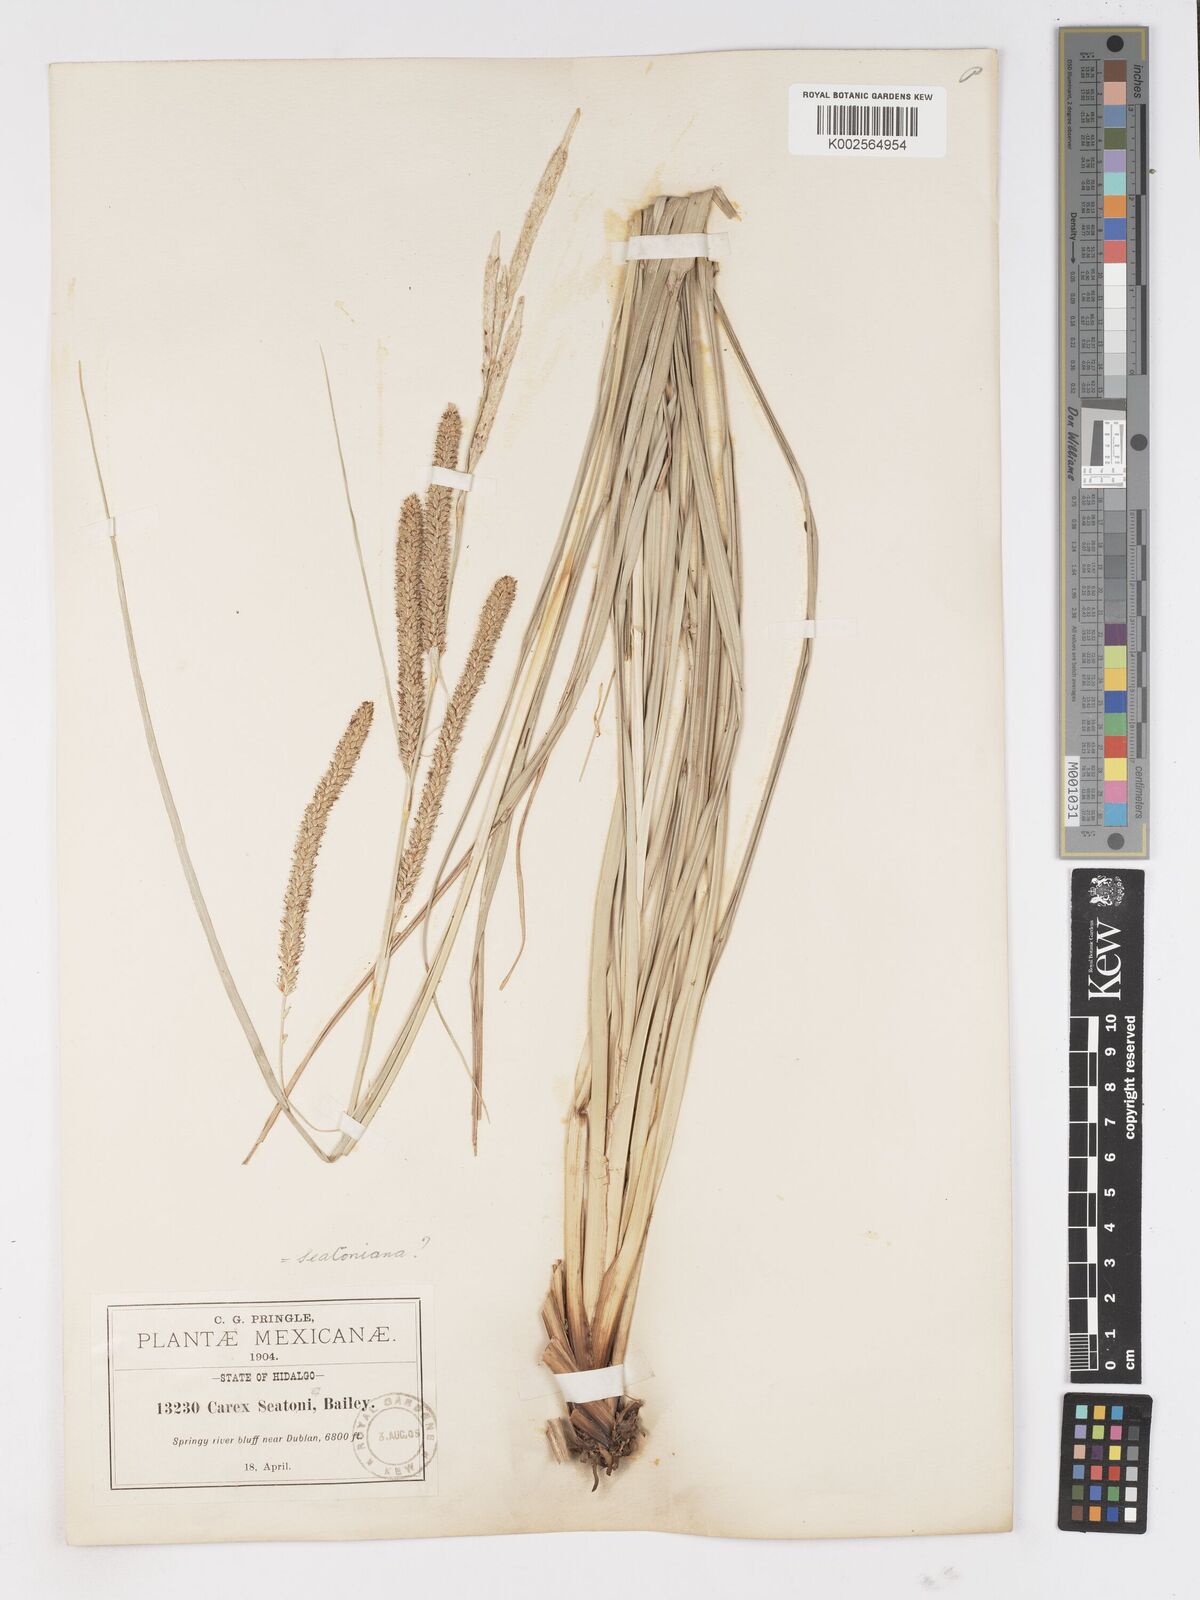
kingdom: Plantae
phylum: Tracheophyta
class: Liliopsida
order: Poales
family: Cyperaceae
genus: Carex
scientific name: Carex spissa
